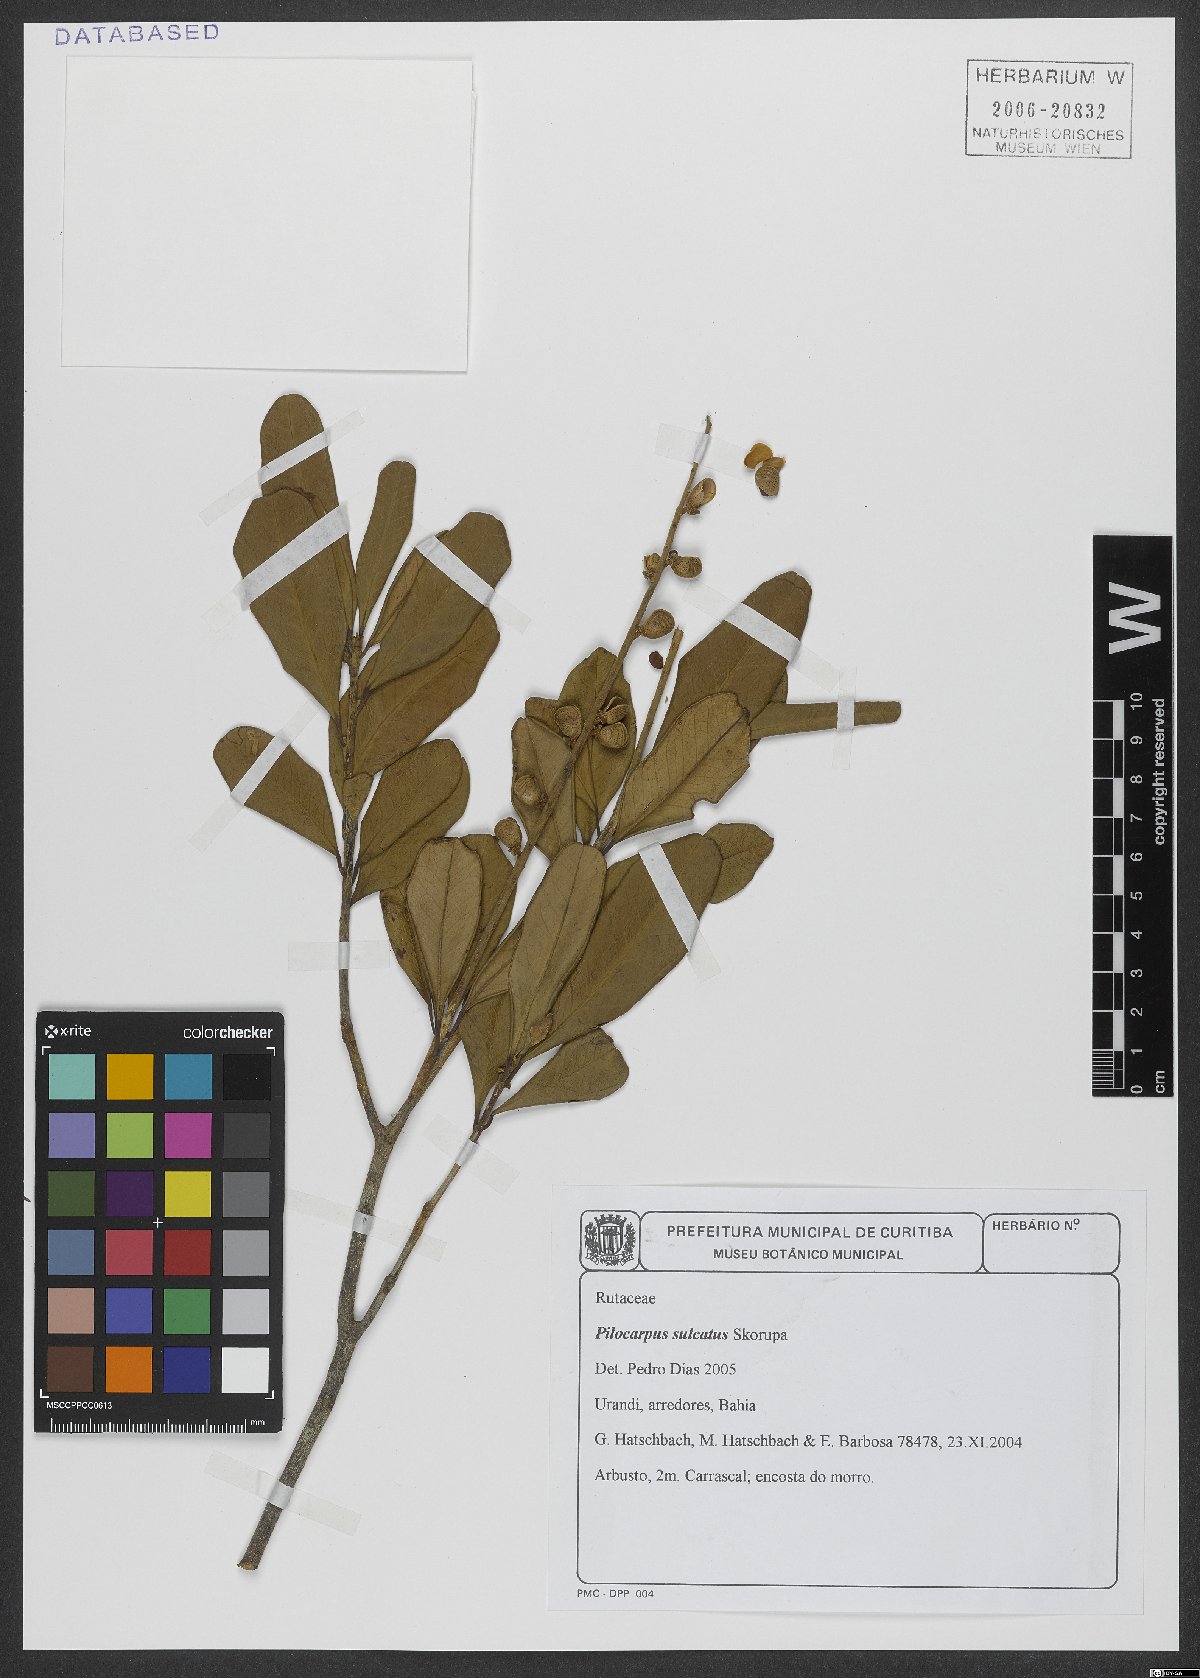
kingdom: Plantae
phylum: Tracheophyta
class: Magnoliopsida
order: Sapindales
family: Rutaceae
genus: Pilocarpus
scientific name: Pilocarpus sulcatus
